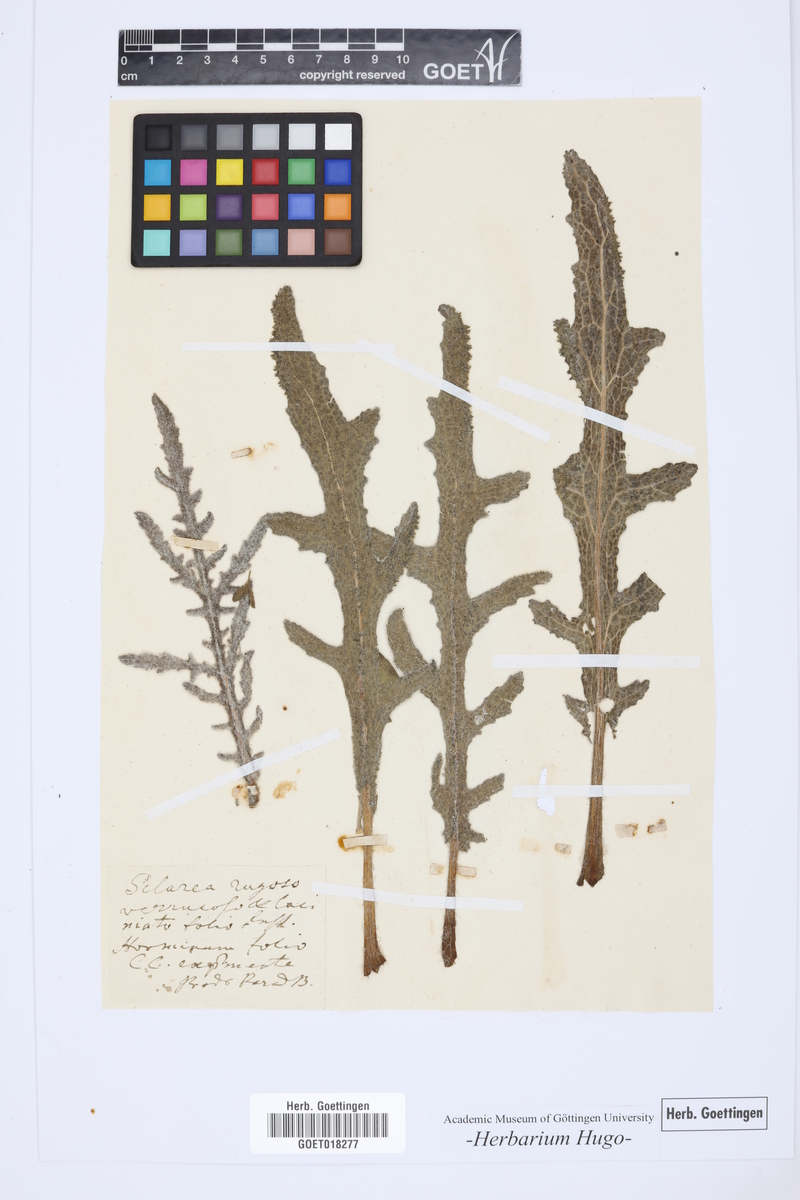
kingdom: Plantae
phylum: Tracheophyta
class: Magnoliopsida
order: Lamiales
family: Lamiaceae
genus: Salvia
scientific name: Salvia ceratophylla
